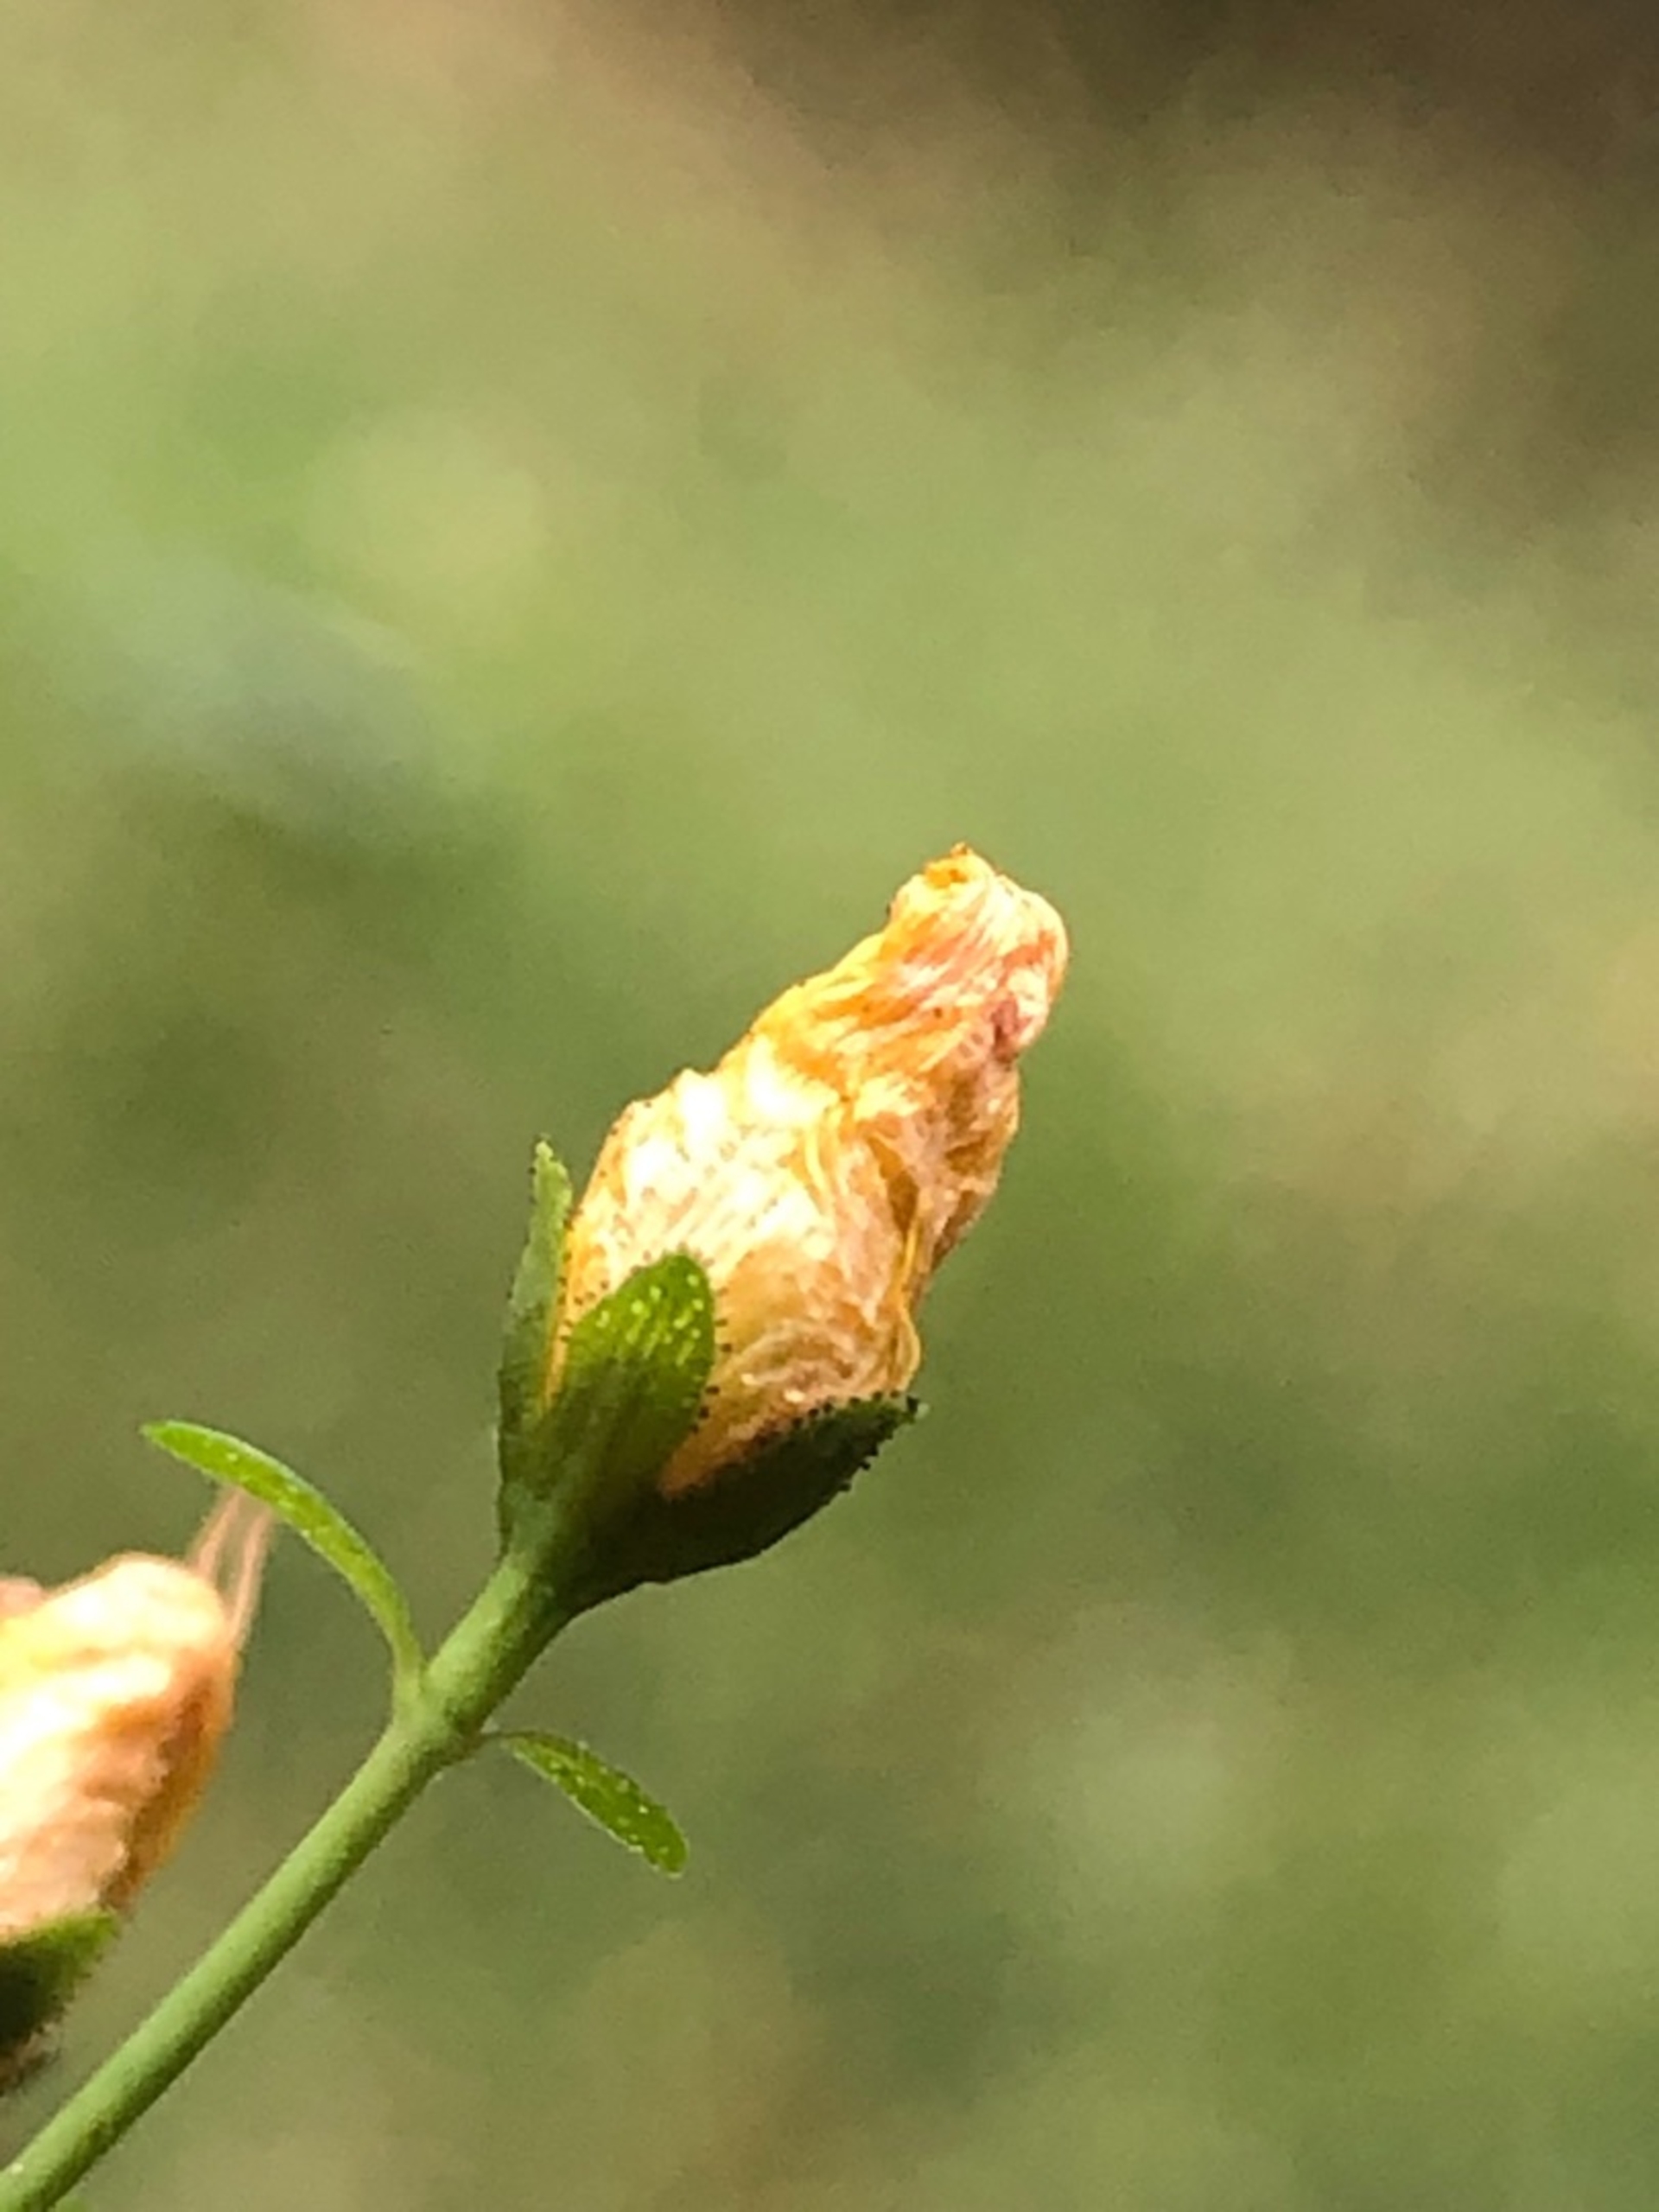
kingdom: Plantae
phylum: Tracheophyta
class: Magnoliopsida
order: Malpighiales
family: Hypericaceae
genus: Hypericum
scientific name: Hypericum pulchrum
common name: Smuk perikon
